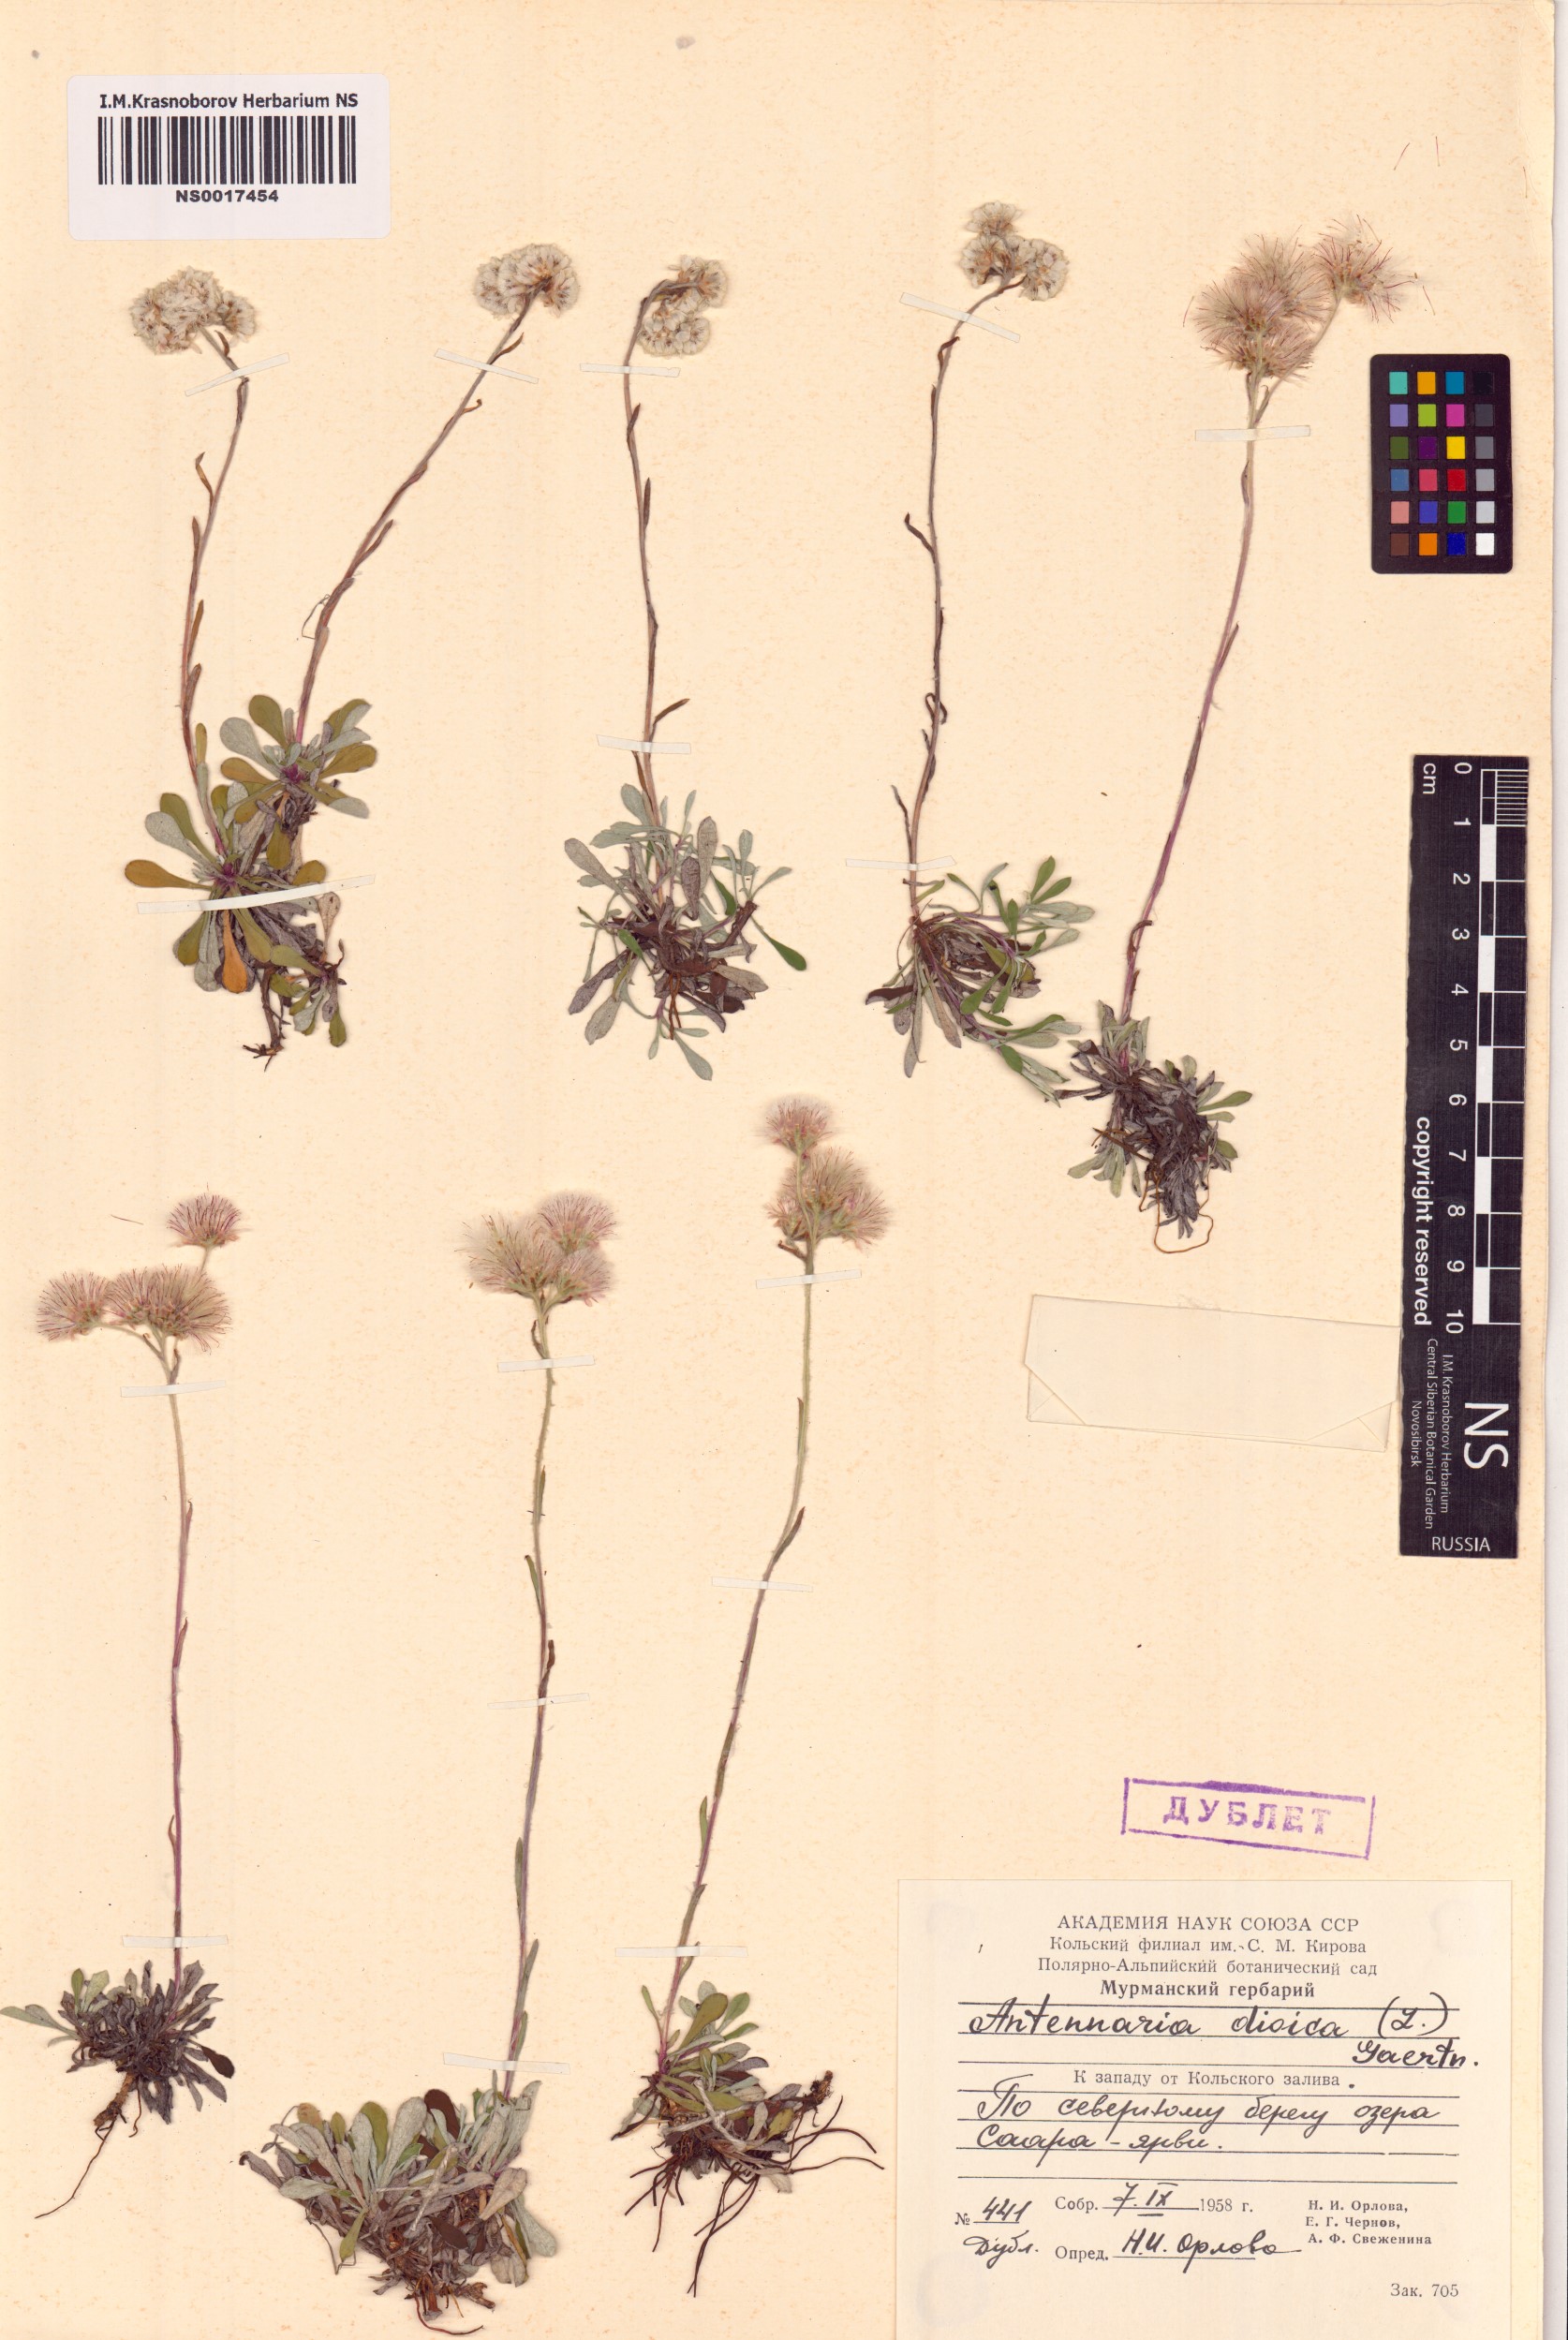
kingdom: Plantae
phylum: Tracheophyta
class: Magnoliopsida
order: Asterales
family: Asteraceae
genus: Antennaria
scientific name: Antennaria dioica
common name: Mountain everlasting
